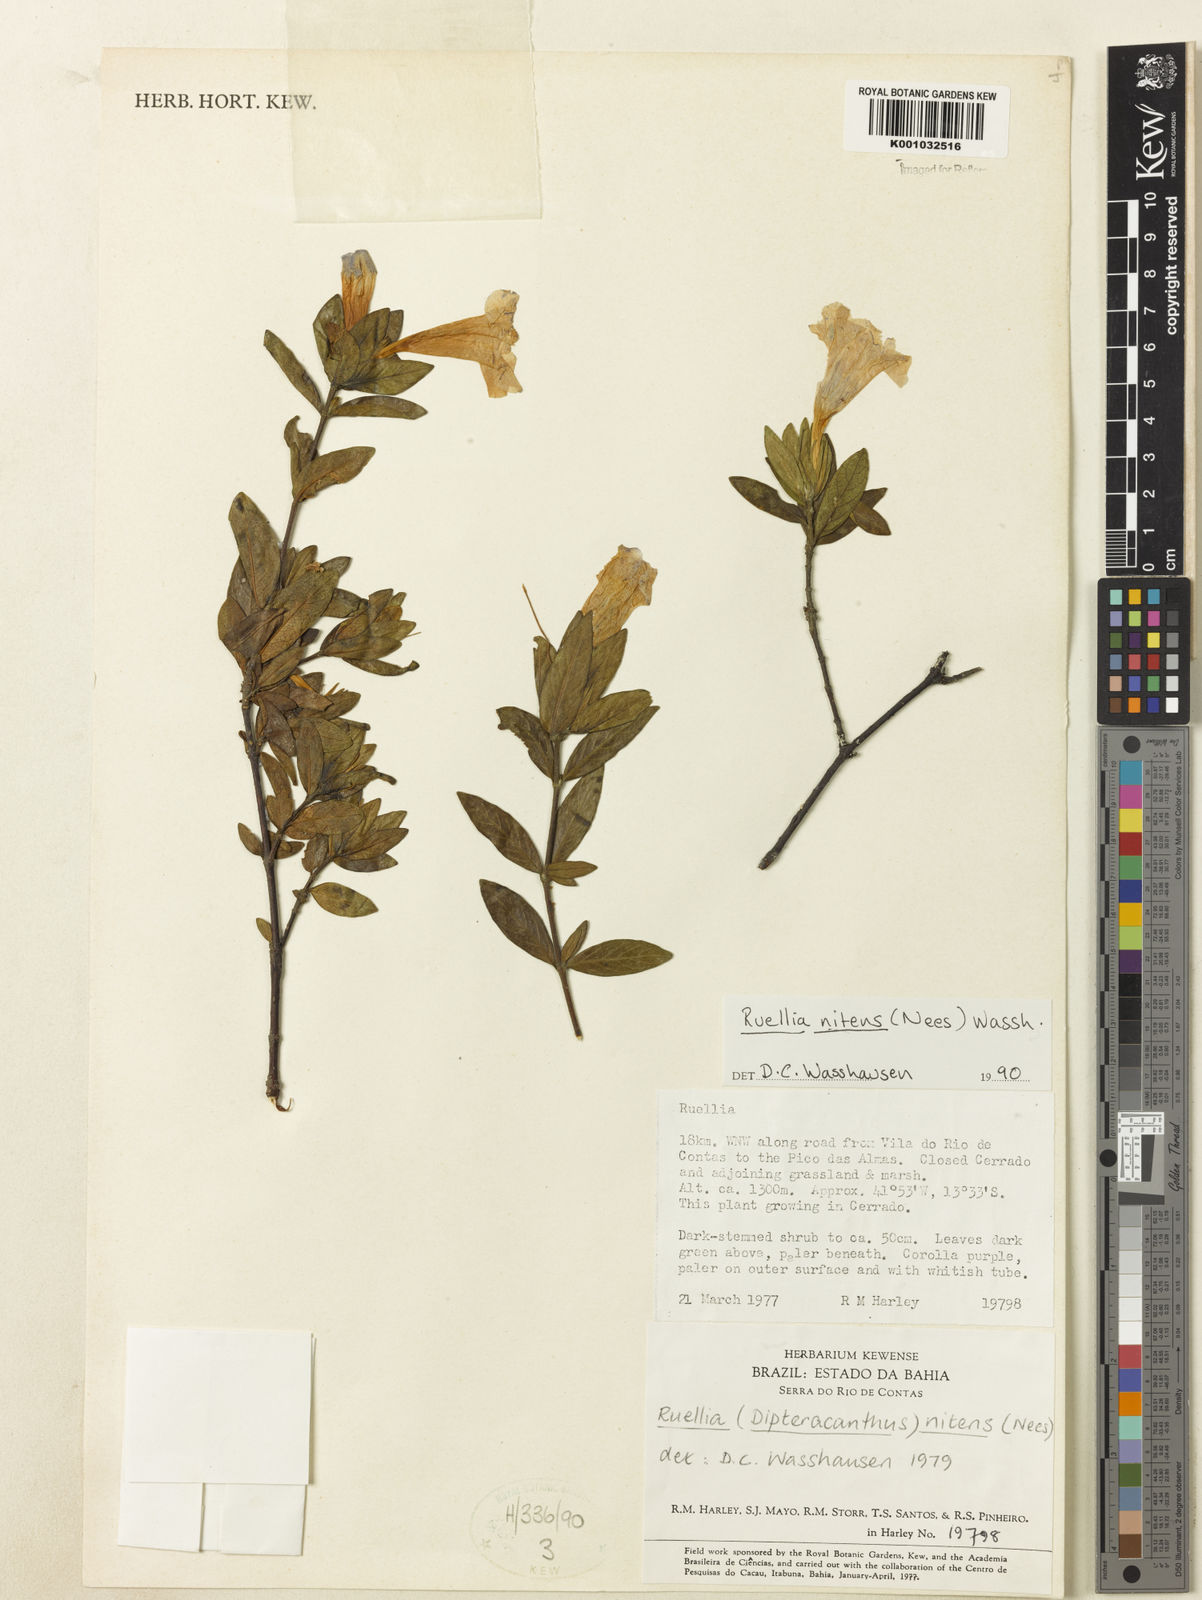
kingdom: Plantae
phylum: Tracheophyta
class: Magnoliopsida
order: Lamiales
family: Acanthaceae
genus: Ruellia
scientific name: Ruellia nitens
